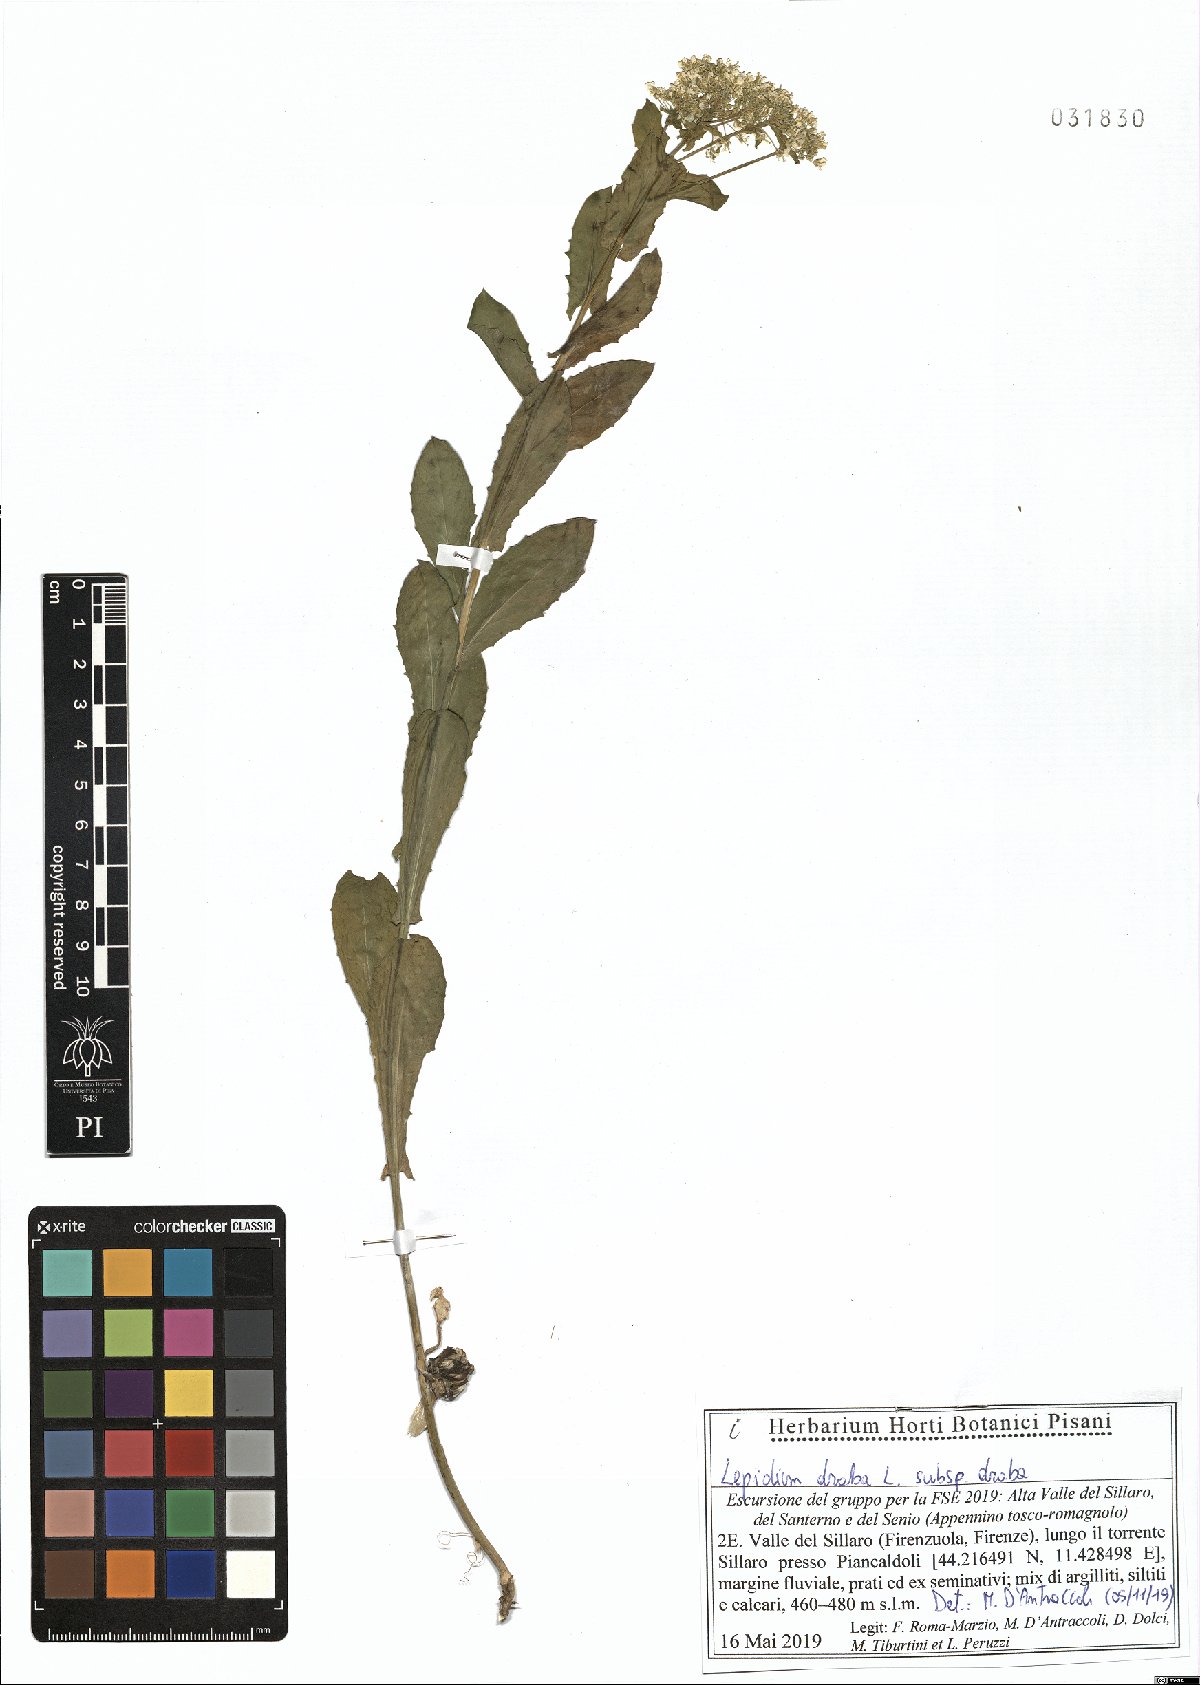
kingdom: Plantae
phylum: Tracheophyta
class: Magnoliopsida
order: Brassicales
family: Brassicaceae
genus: Lepidium
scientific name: Lepidium draba
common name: Hoary cress
